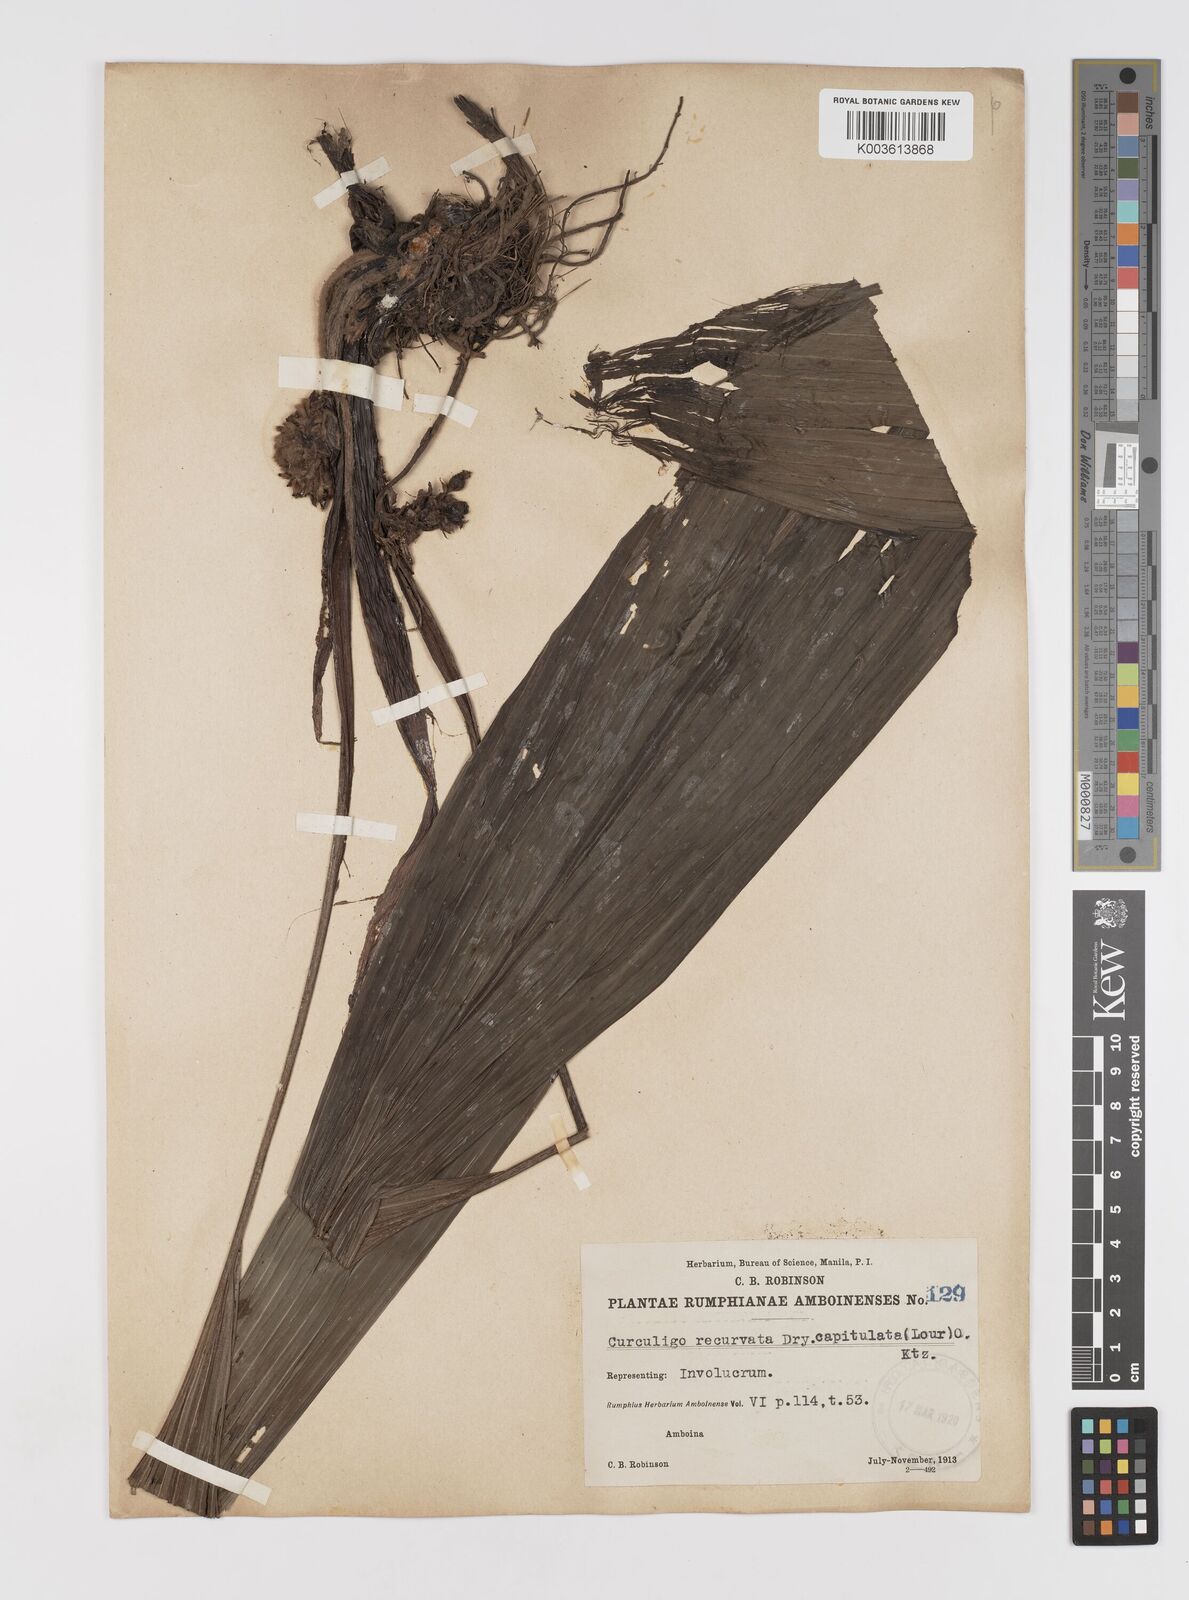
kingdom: Plantae
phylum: Tracheophyta
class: Liliopsida
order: Asparagales
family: Hypoxidaceae
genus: Curculigo
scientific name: Curculigo capitulata
